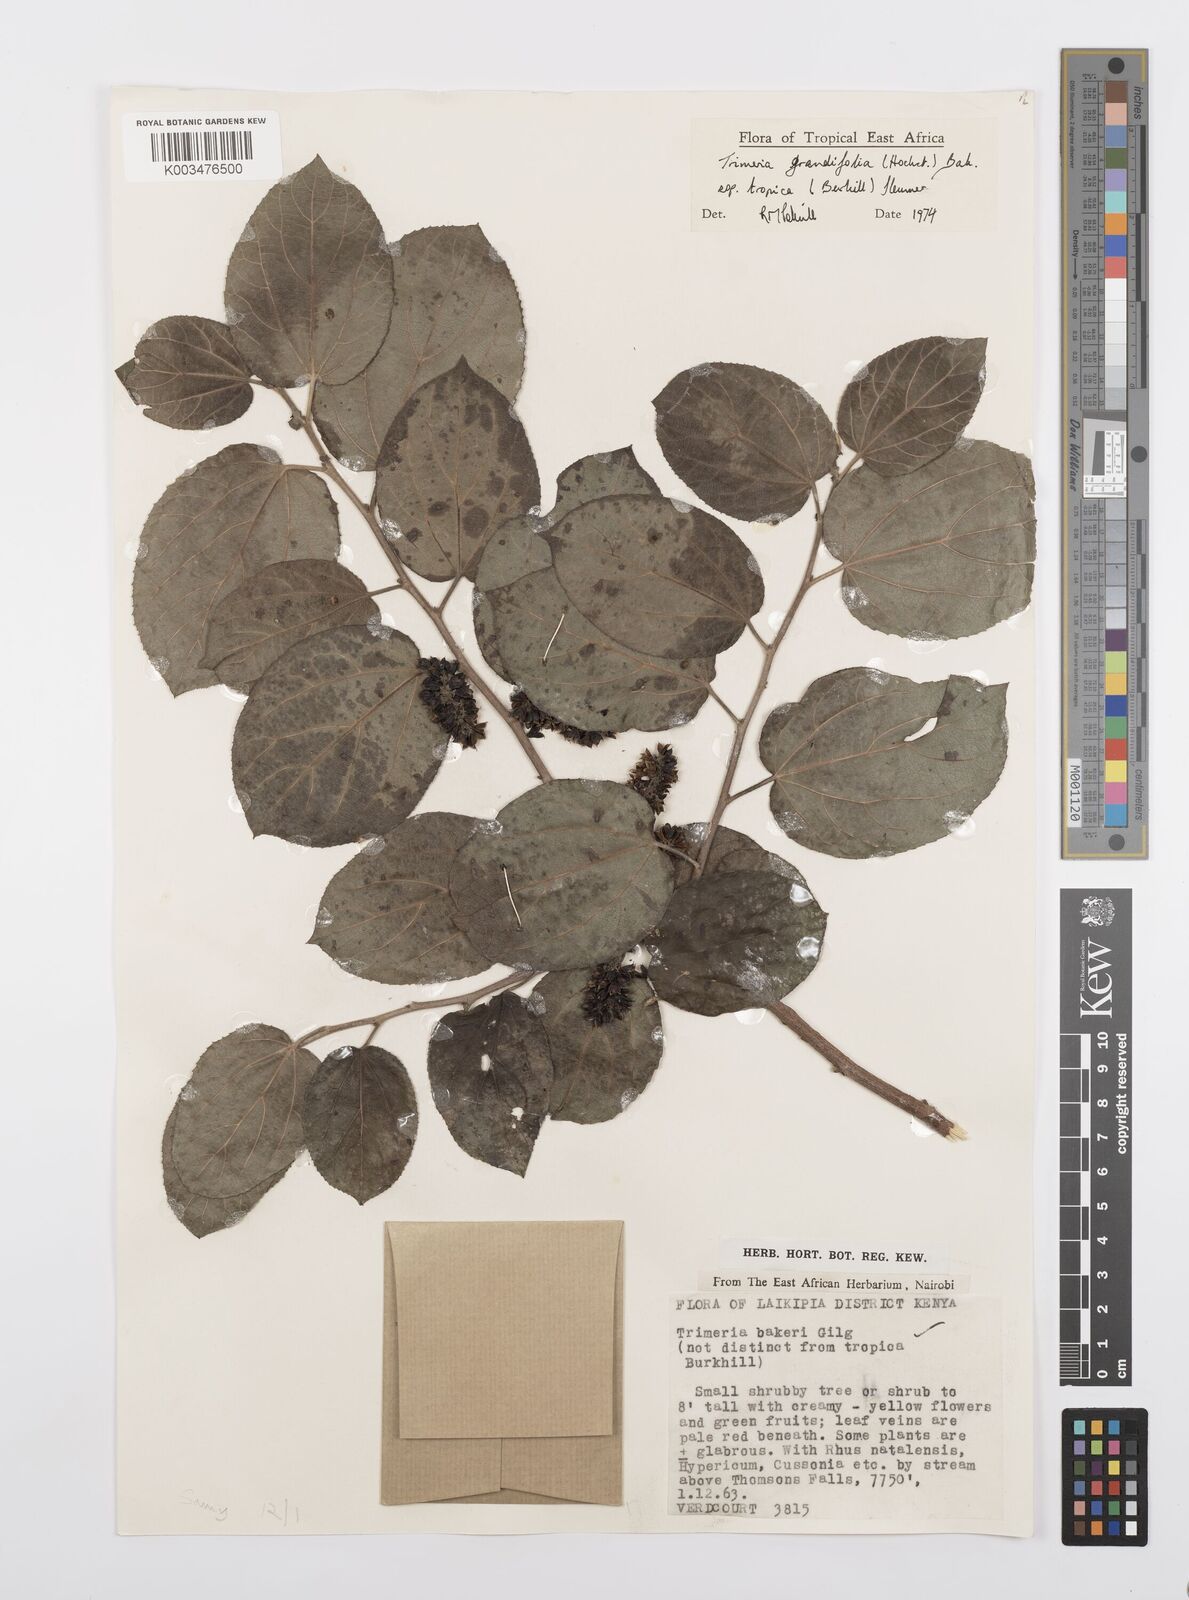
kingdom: Plantae
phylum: Tracheophyta
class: Magnoliopsida
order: Malpighiales
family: Salicaceae
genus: Trimeria
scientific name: Trimeria grandifolia
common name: Wild mulberry
